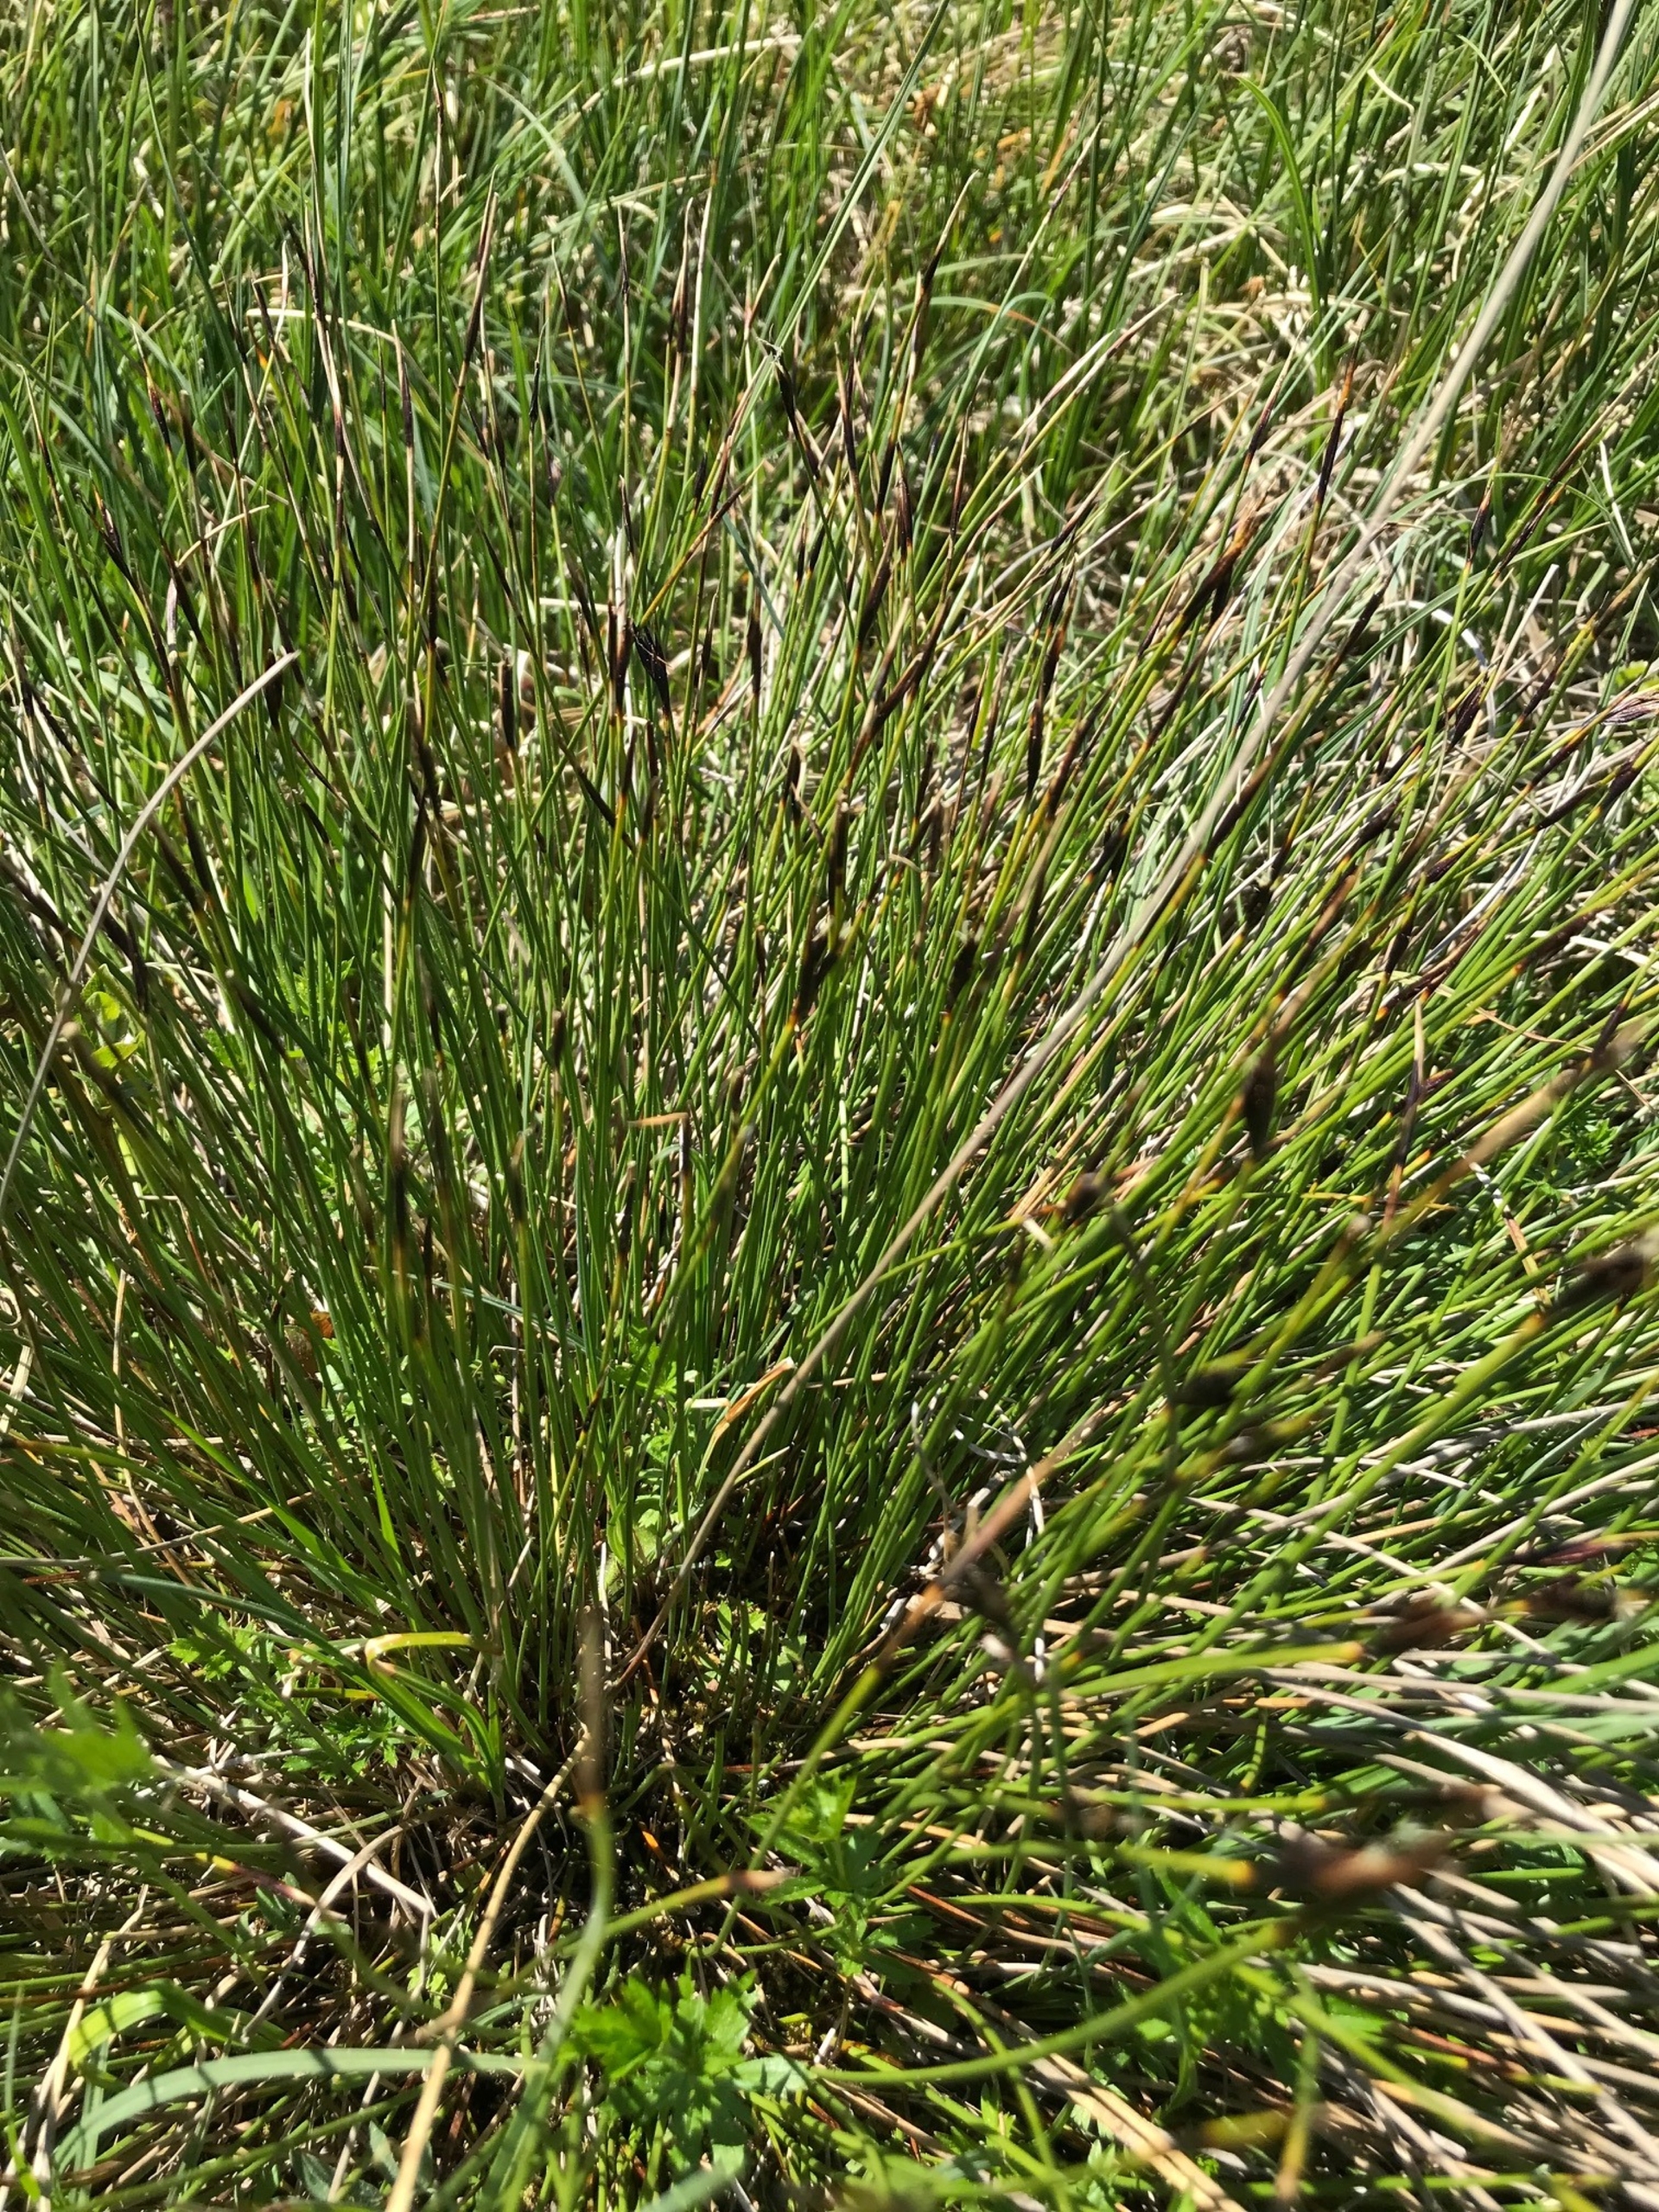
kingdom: Plantae
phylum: Tracheophyta
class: Liliopsida
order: Poales
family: Cyperaceae
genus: Schoenus
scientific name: Schoenus ferrugineus
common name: Rust-skæne
